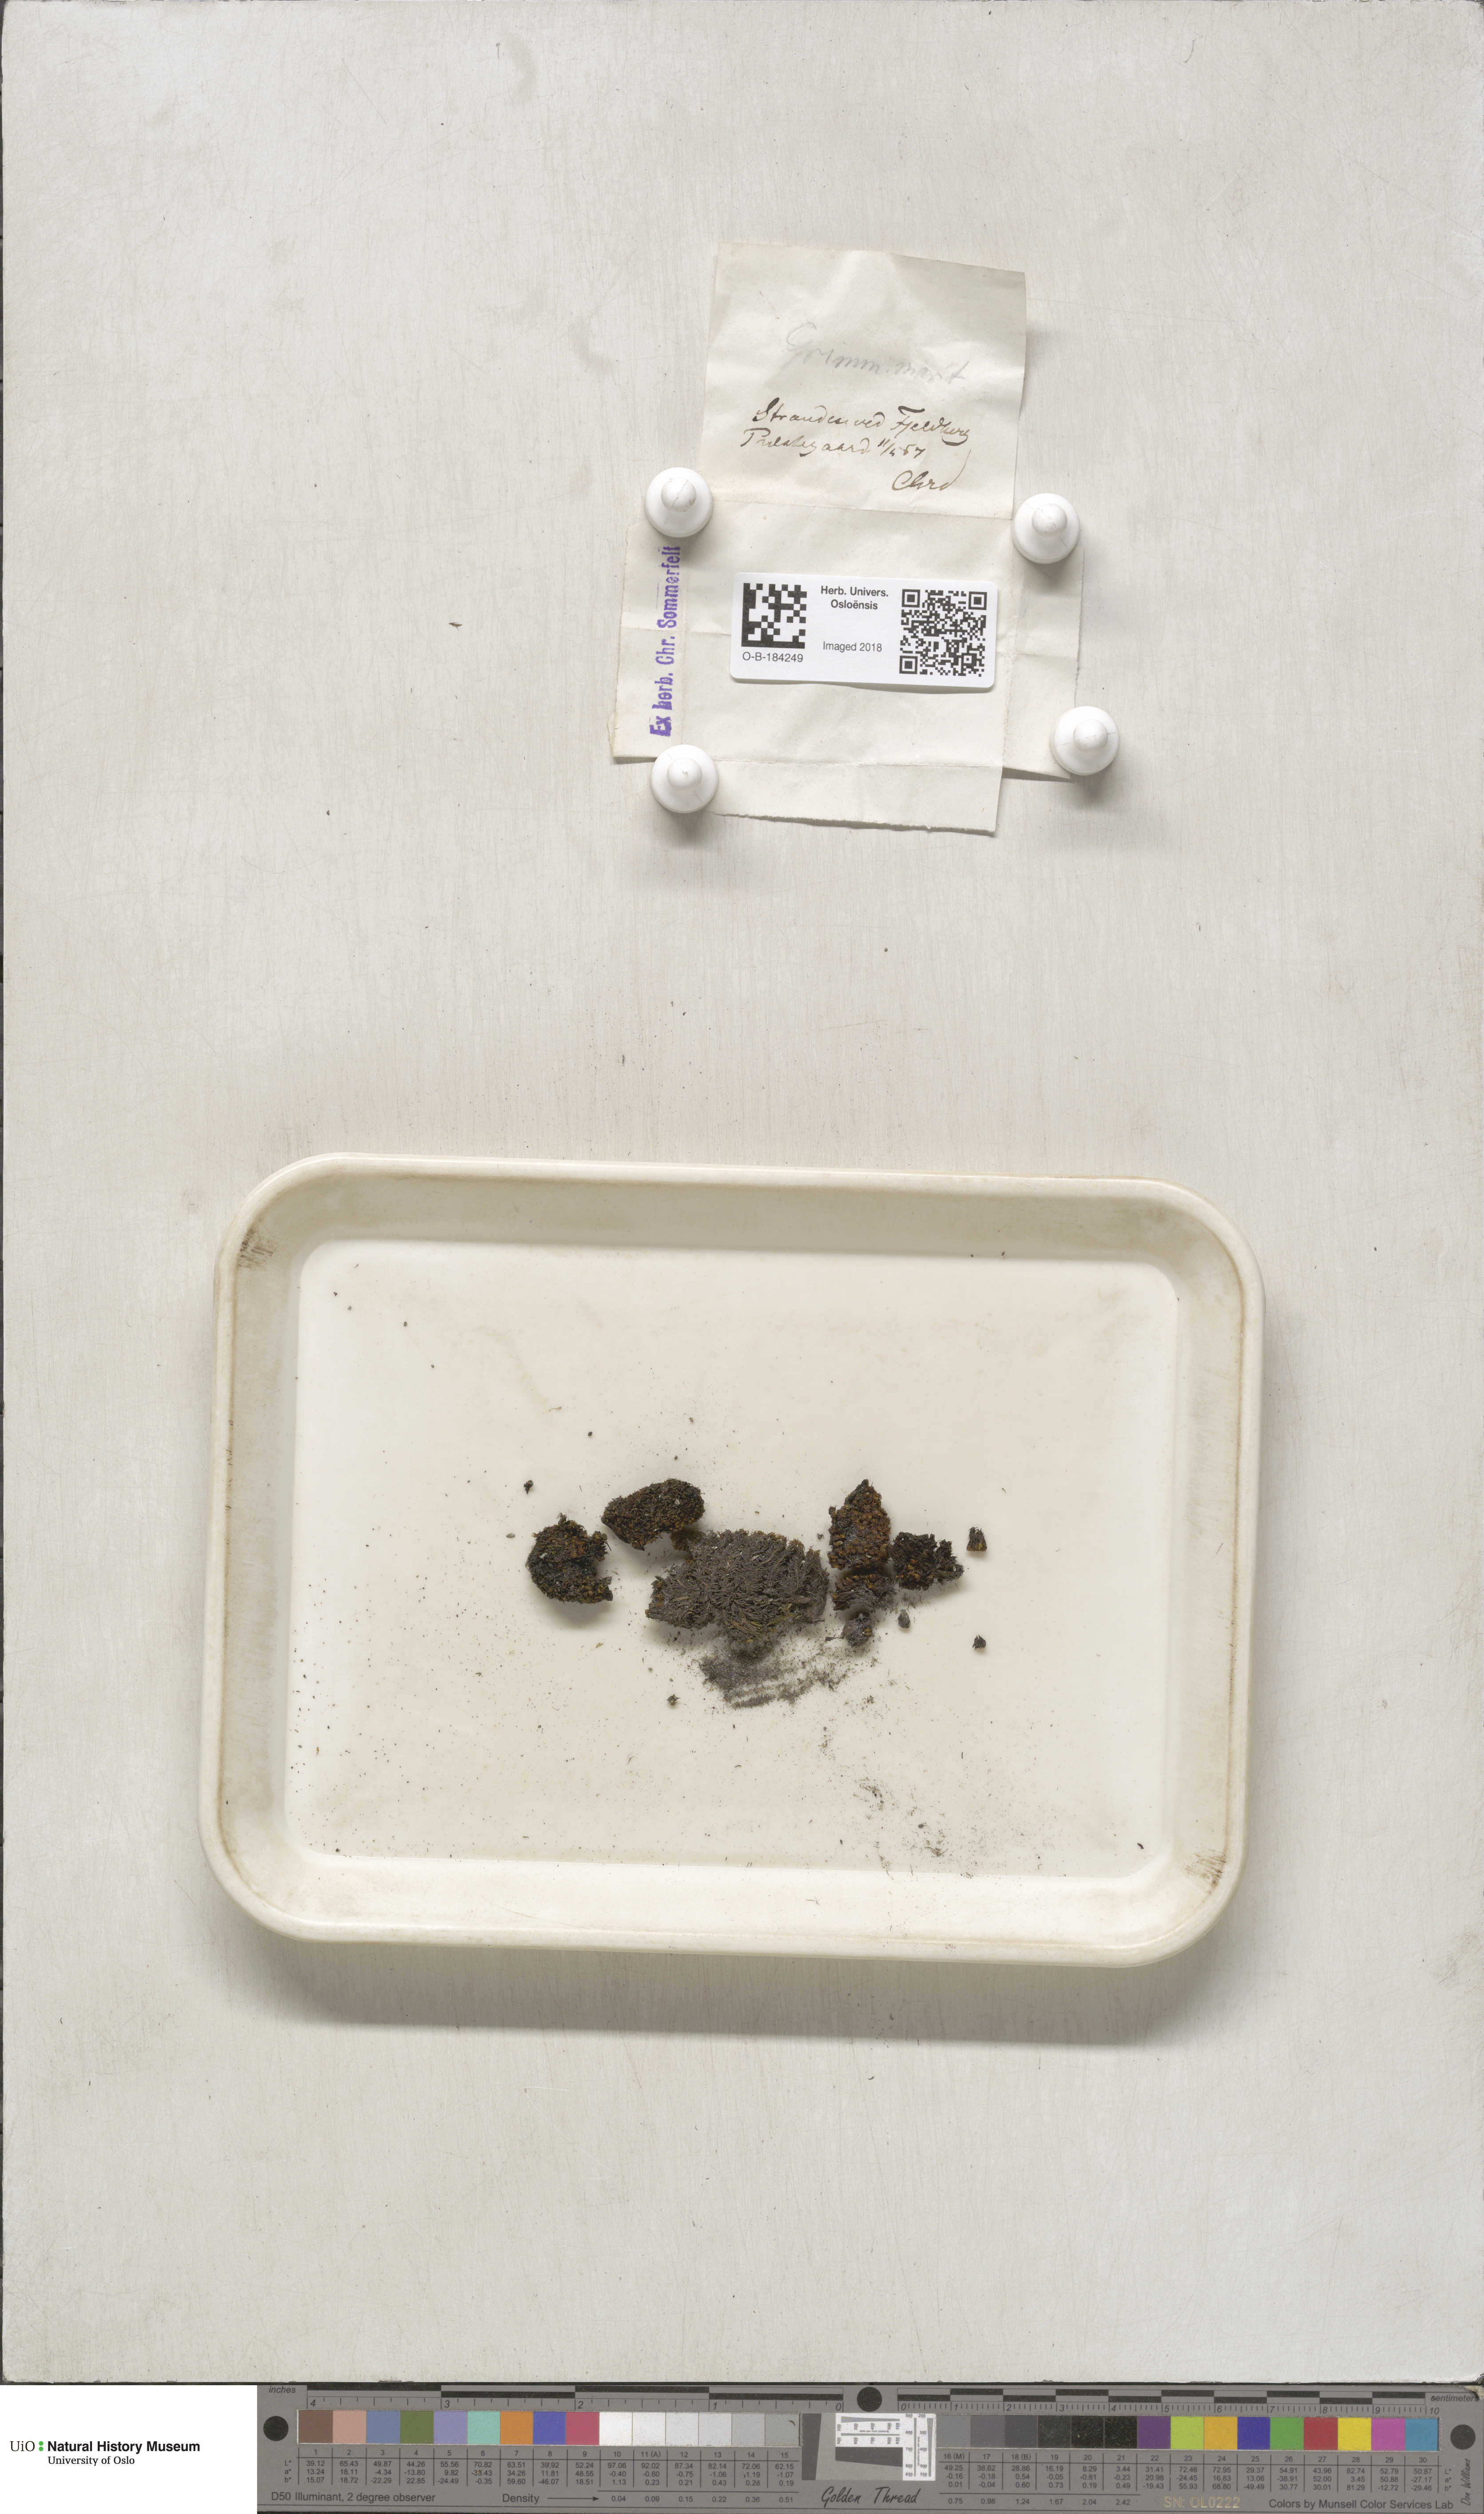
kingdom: Plantae
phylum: Bryophyta
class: Bryopsida
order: Grimmiales
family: Grimmiaceae
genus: Schistidium
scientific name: Schistidium maritimum
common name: Seaside bloom moss
